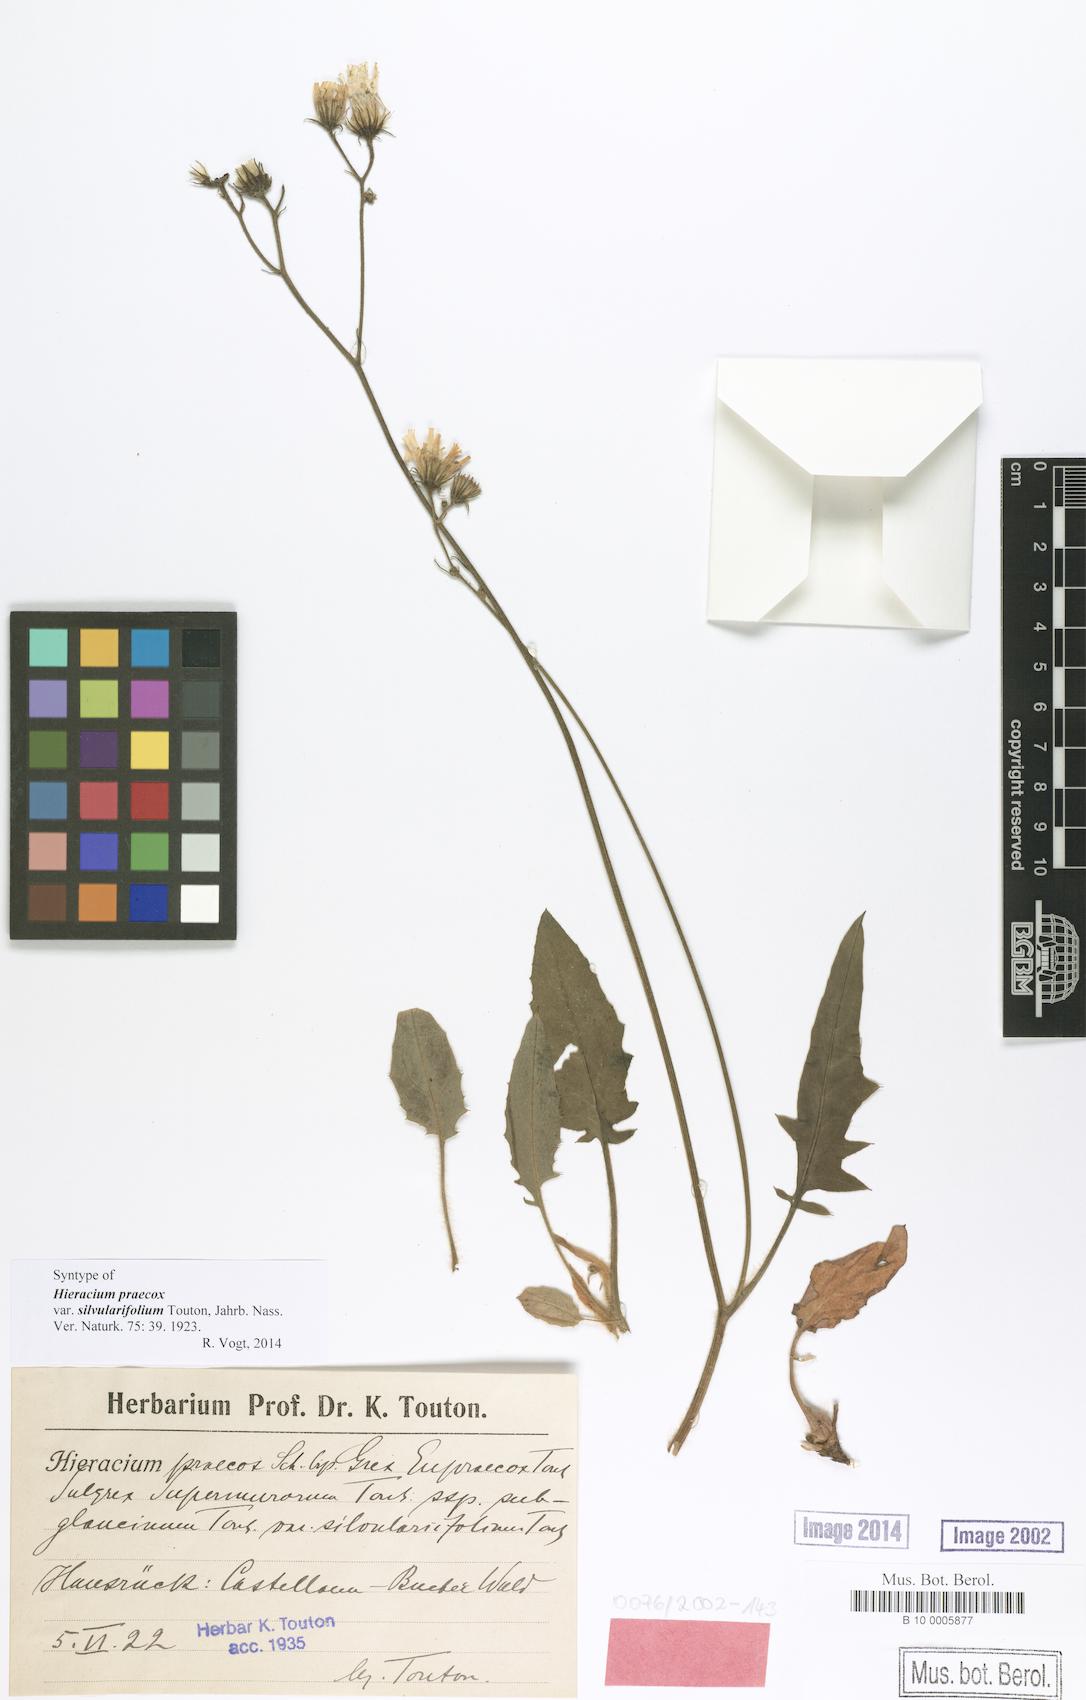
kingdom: Plantae
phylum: Tracheophyta
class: Magnoliopsida
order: Asterales
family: Asteraceae
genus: Hieracium
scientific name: Hieracium praecox
